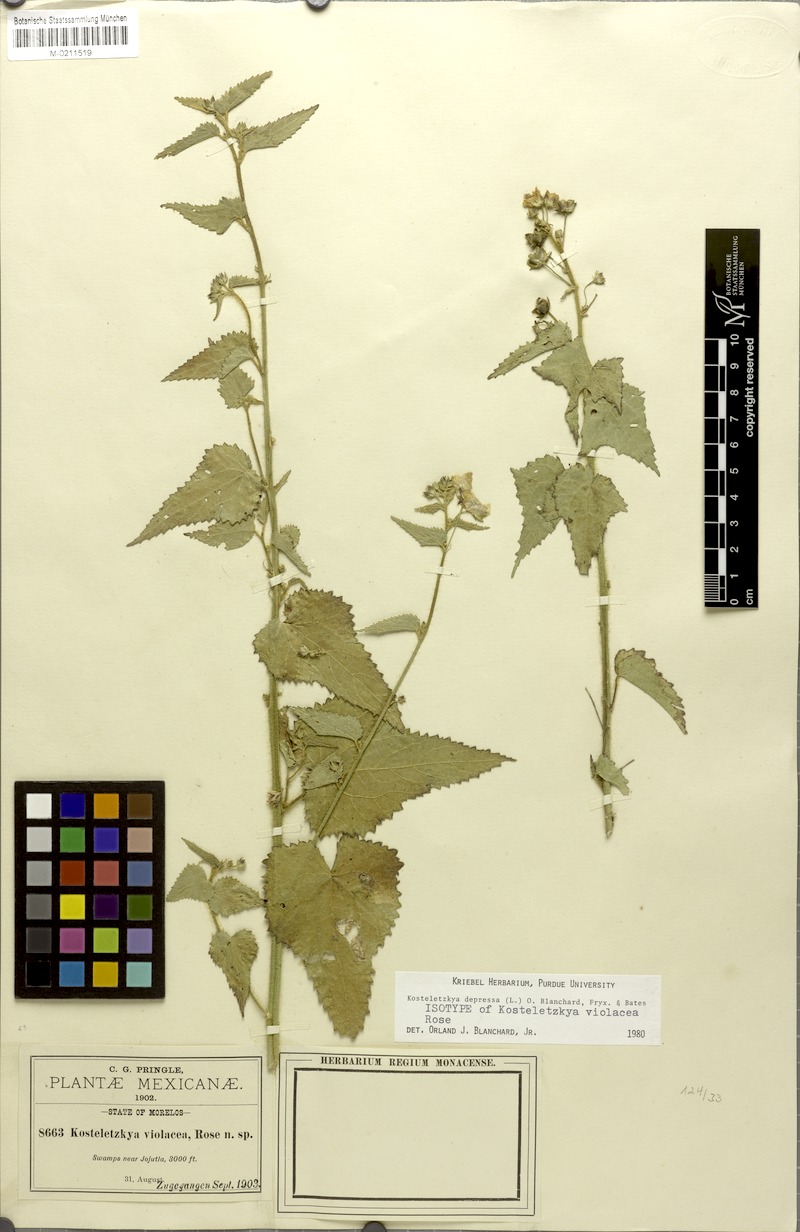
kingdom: Plantae
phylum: Tracheophyta
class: Magnoliopsida
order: Malvales
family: Malvaceae
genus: Kosteletzkya
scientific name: Kosteletzkya depressa
